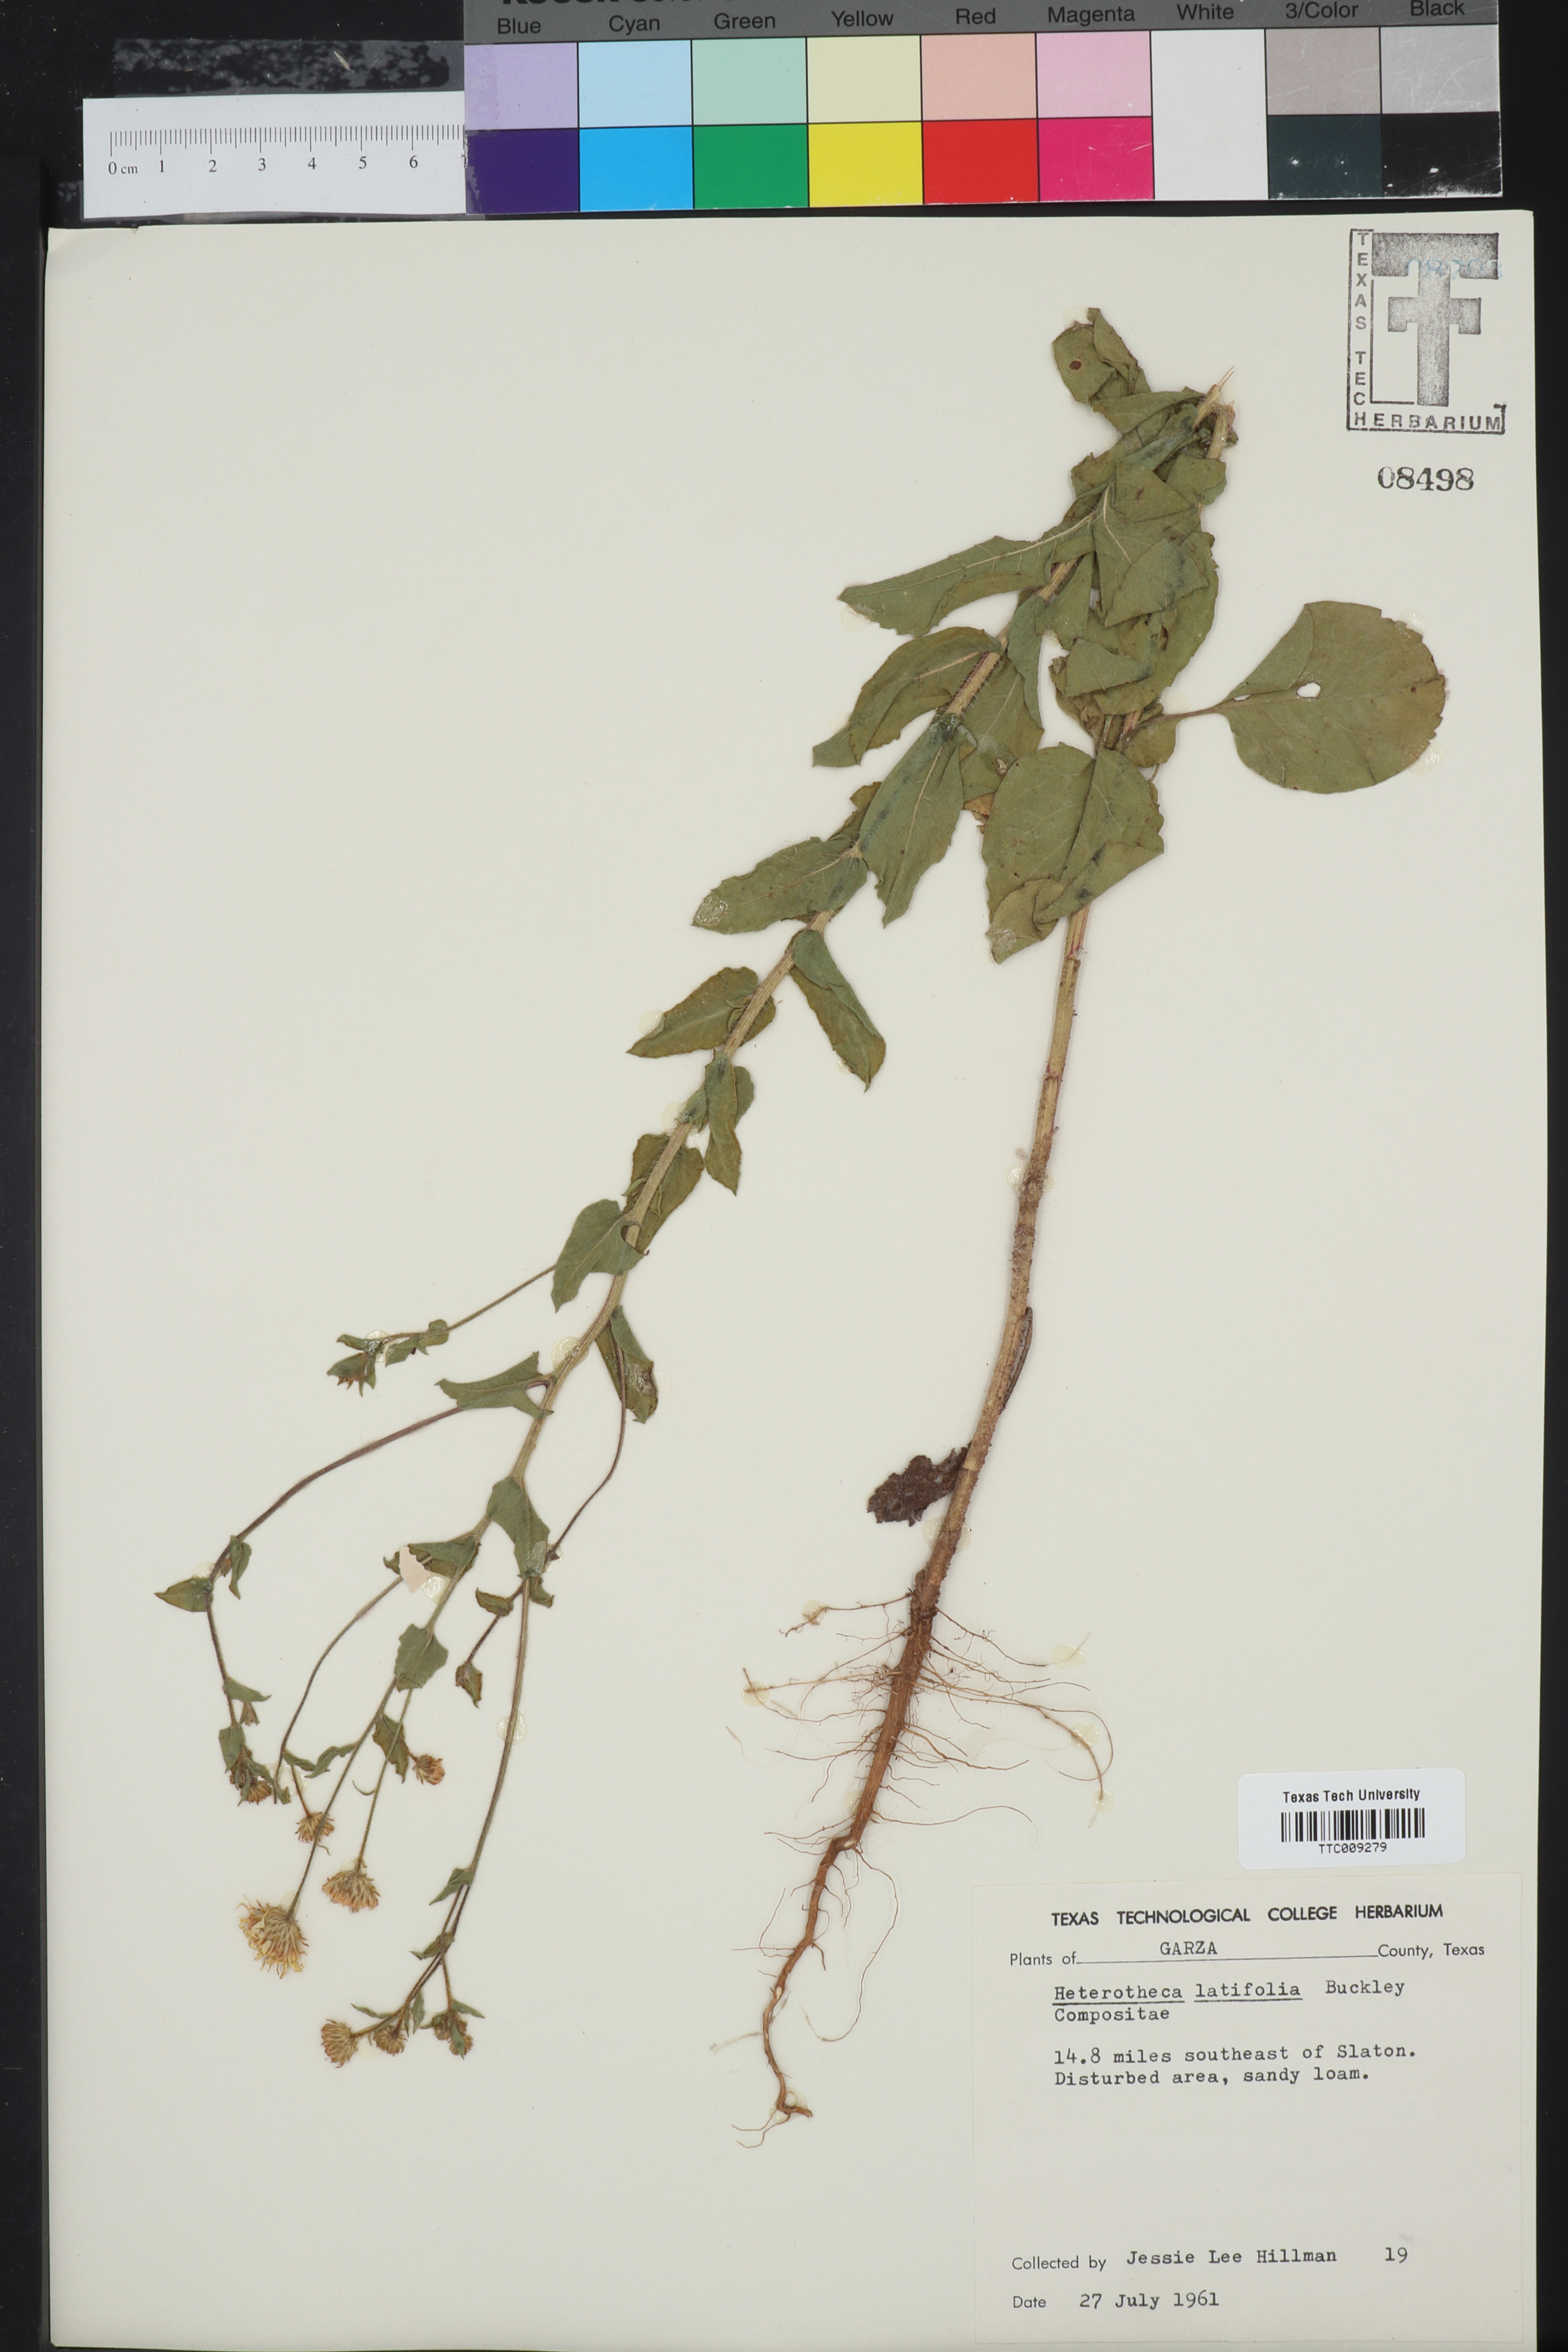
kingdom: Plantae
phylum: Tracheophyta
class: Magnoliopsida
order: Asterales
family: Asteraceae
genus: Heterotheca
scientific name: Heterotheca subaxillaris
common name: Camphorweed
